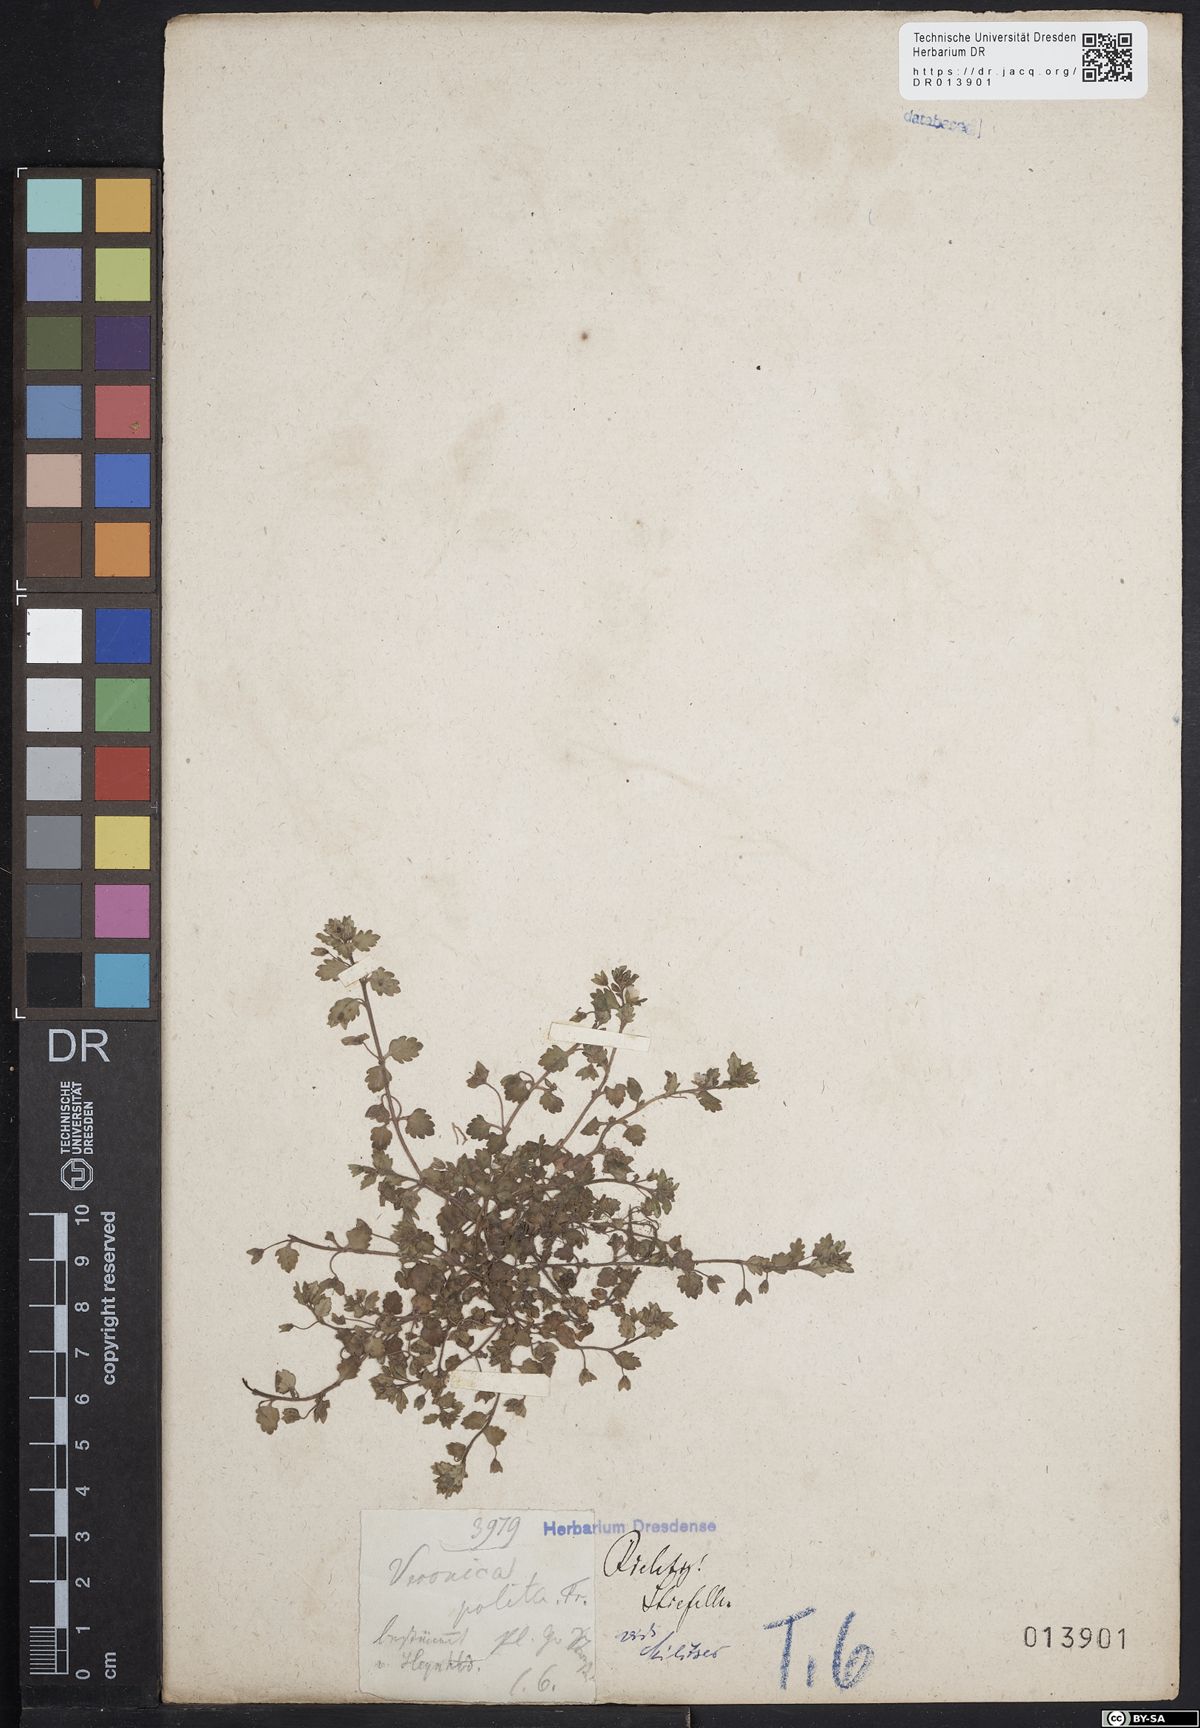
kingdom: Plantae
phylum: Tracheophyta
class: Magnoliopsida
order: Lamiales
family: Plantaginaceae
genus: Veronica
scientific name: Veronica polita
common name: Grey field-speedwell
